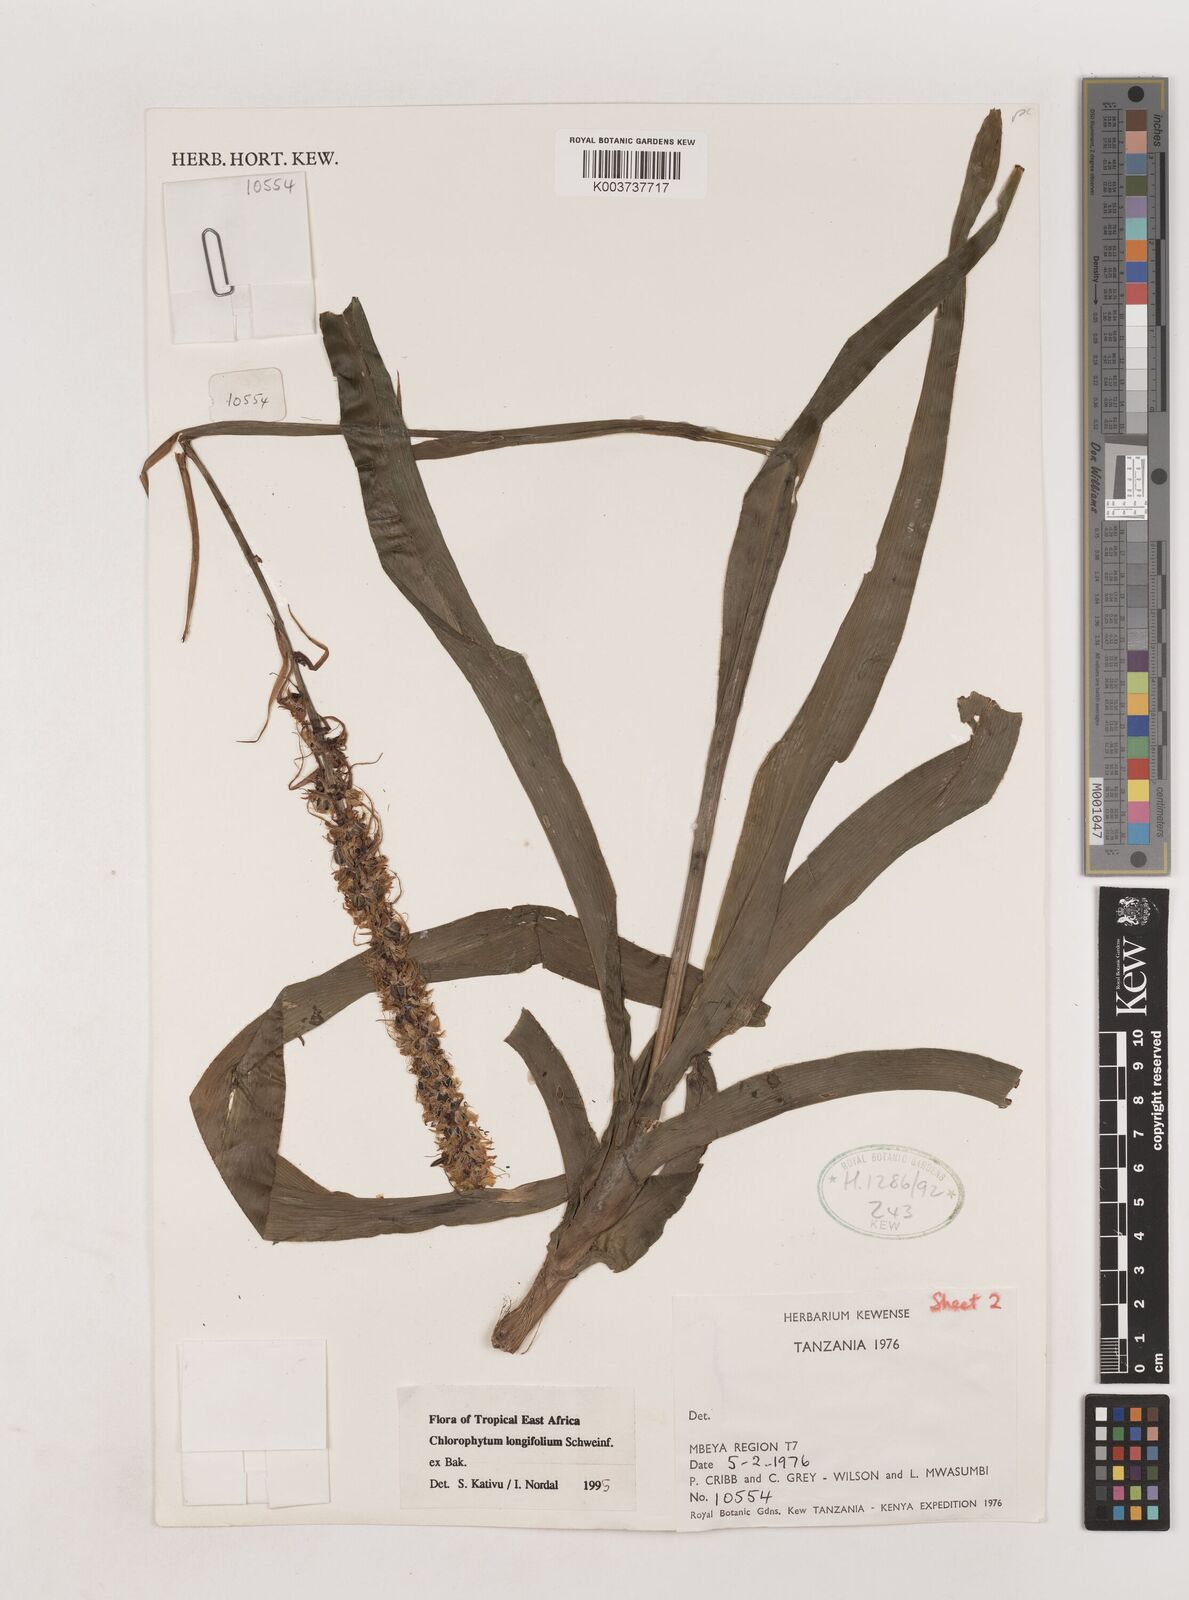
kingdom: Plantae
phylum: Tracheophyta
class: Liliopsida
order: Asparagales
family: Asparagaceae
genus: Chlorophytum
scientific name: Chlorophytum longifolium
